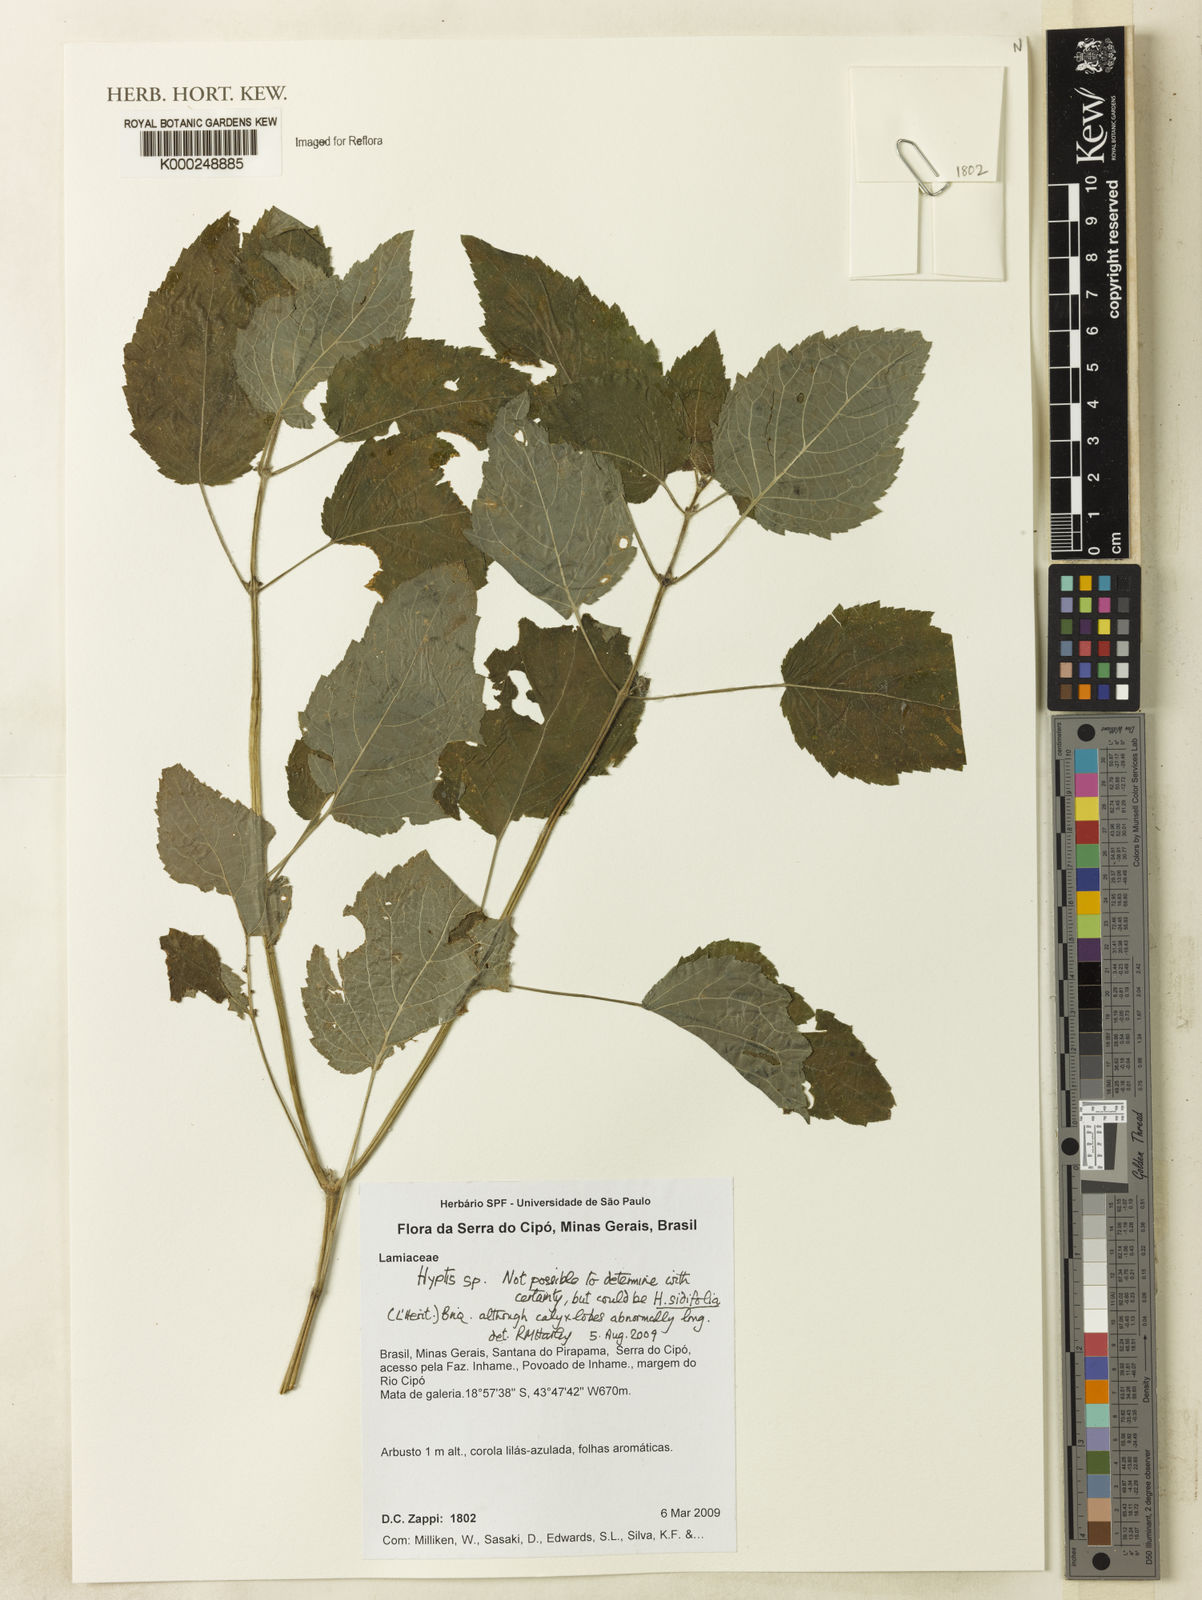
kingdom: Plantae
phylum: Tracheophyta
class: Magnoliopsida
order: Lamiales
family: Lamiaceae
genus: Hyptis
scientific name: Hyptis
